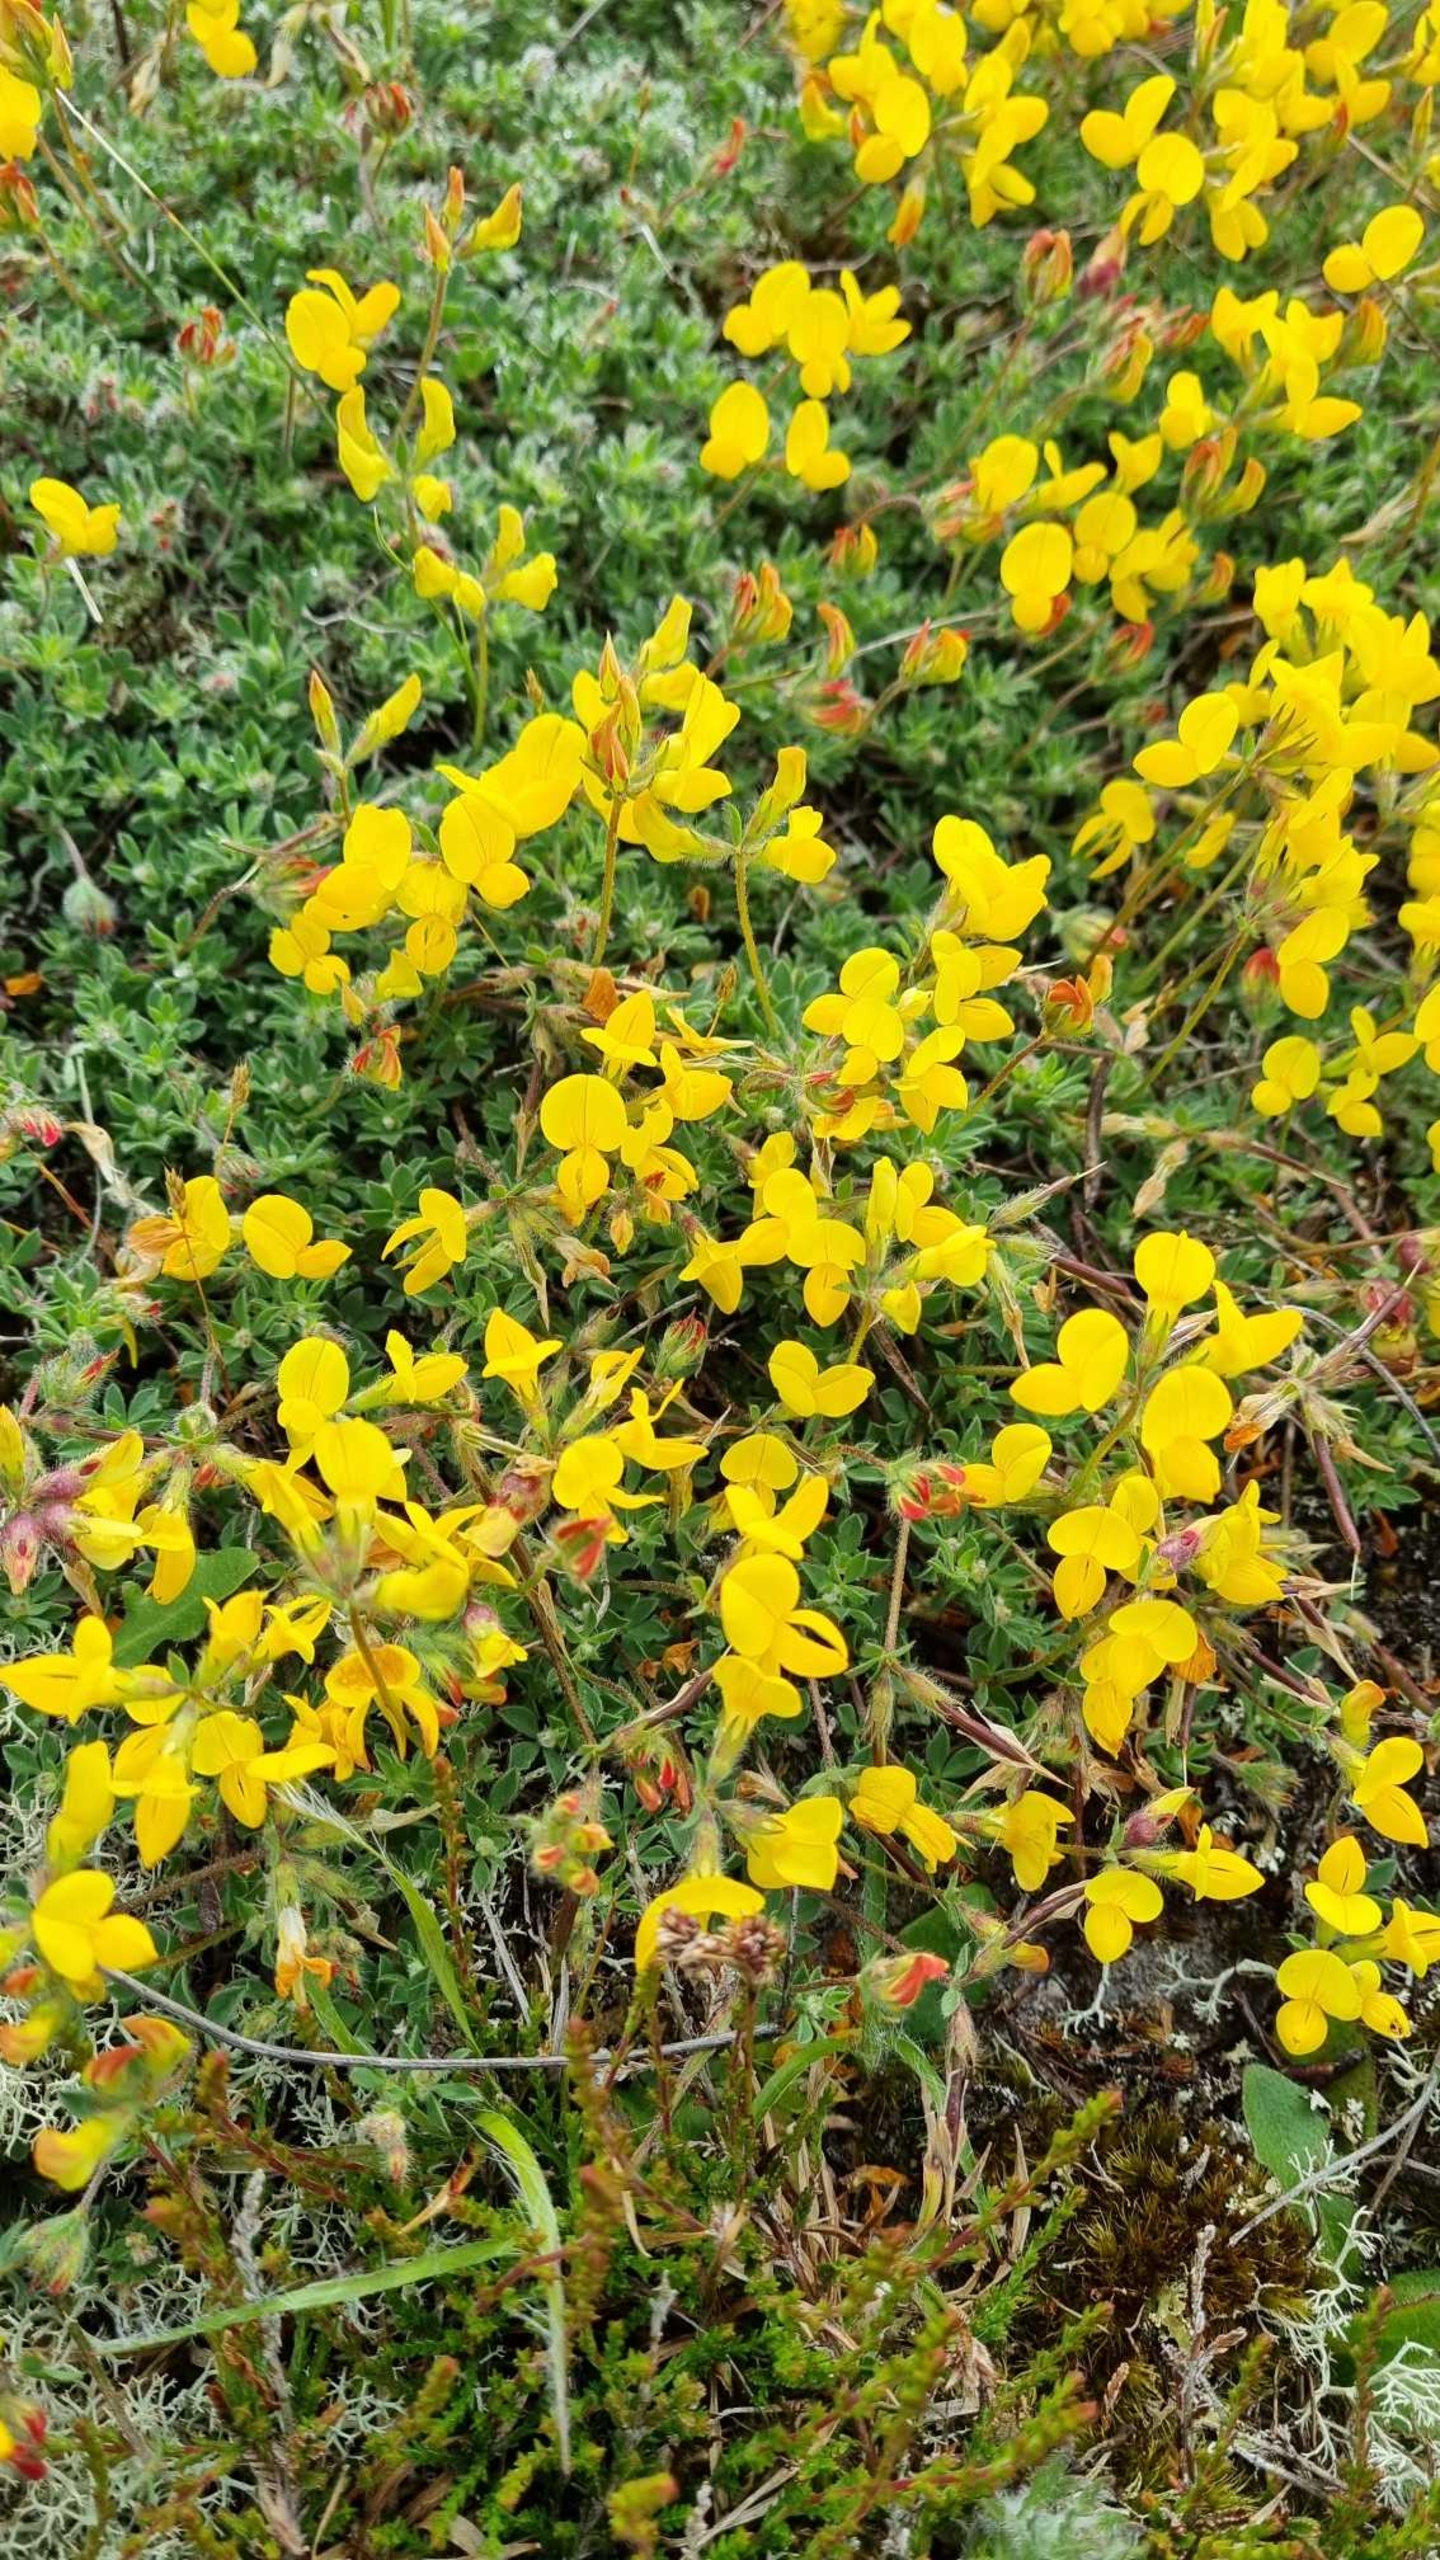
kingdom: Plantae
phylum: Tracheophyta
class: Magnoliopsida
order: Fabales
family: Fabaceae
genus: Lotus
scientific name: Lotus corniculatus
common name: Almindelig kællingetand
